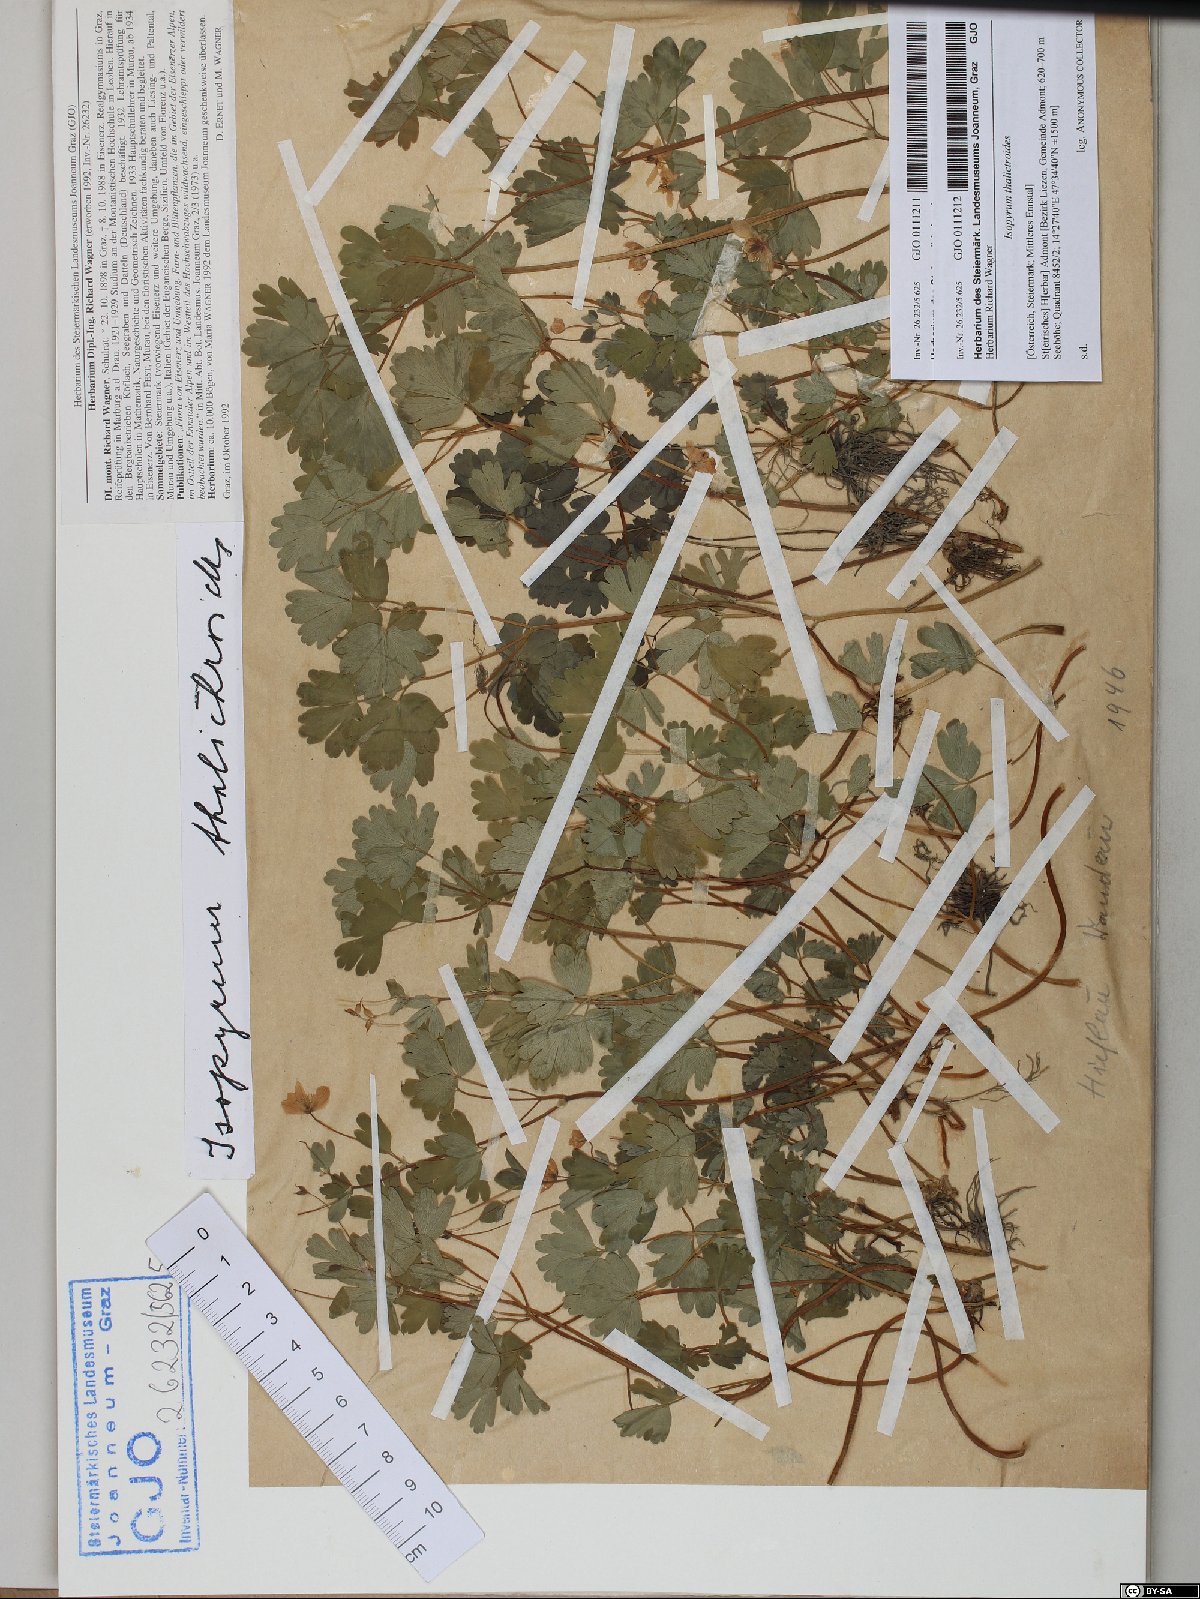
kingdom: Plantae
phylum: Tracheophyta
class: Magnoliopsida
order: Ranunculales
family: Ranunculaceae
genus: Isopyrum
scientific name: Isopyrum thalictroides
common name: Isopyrum
